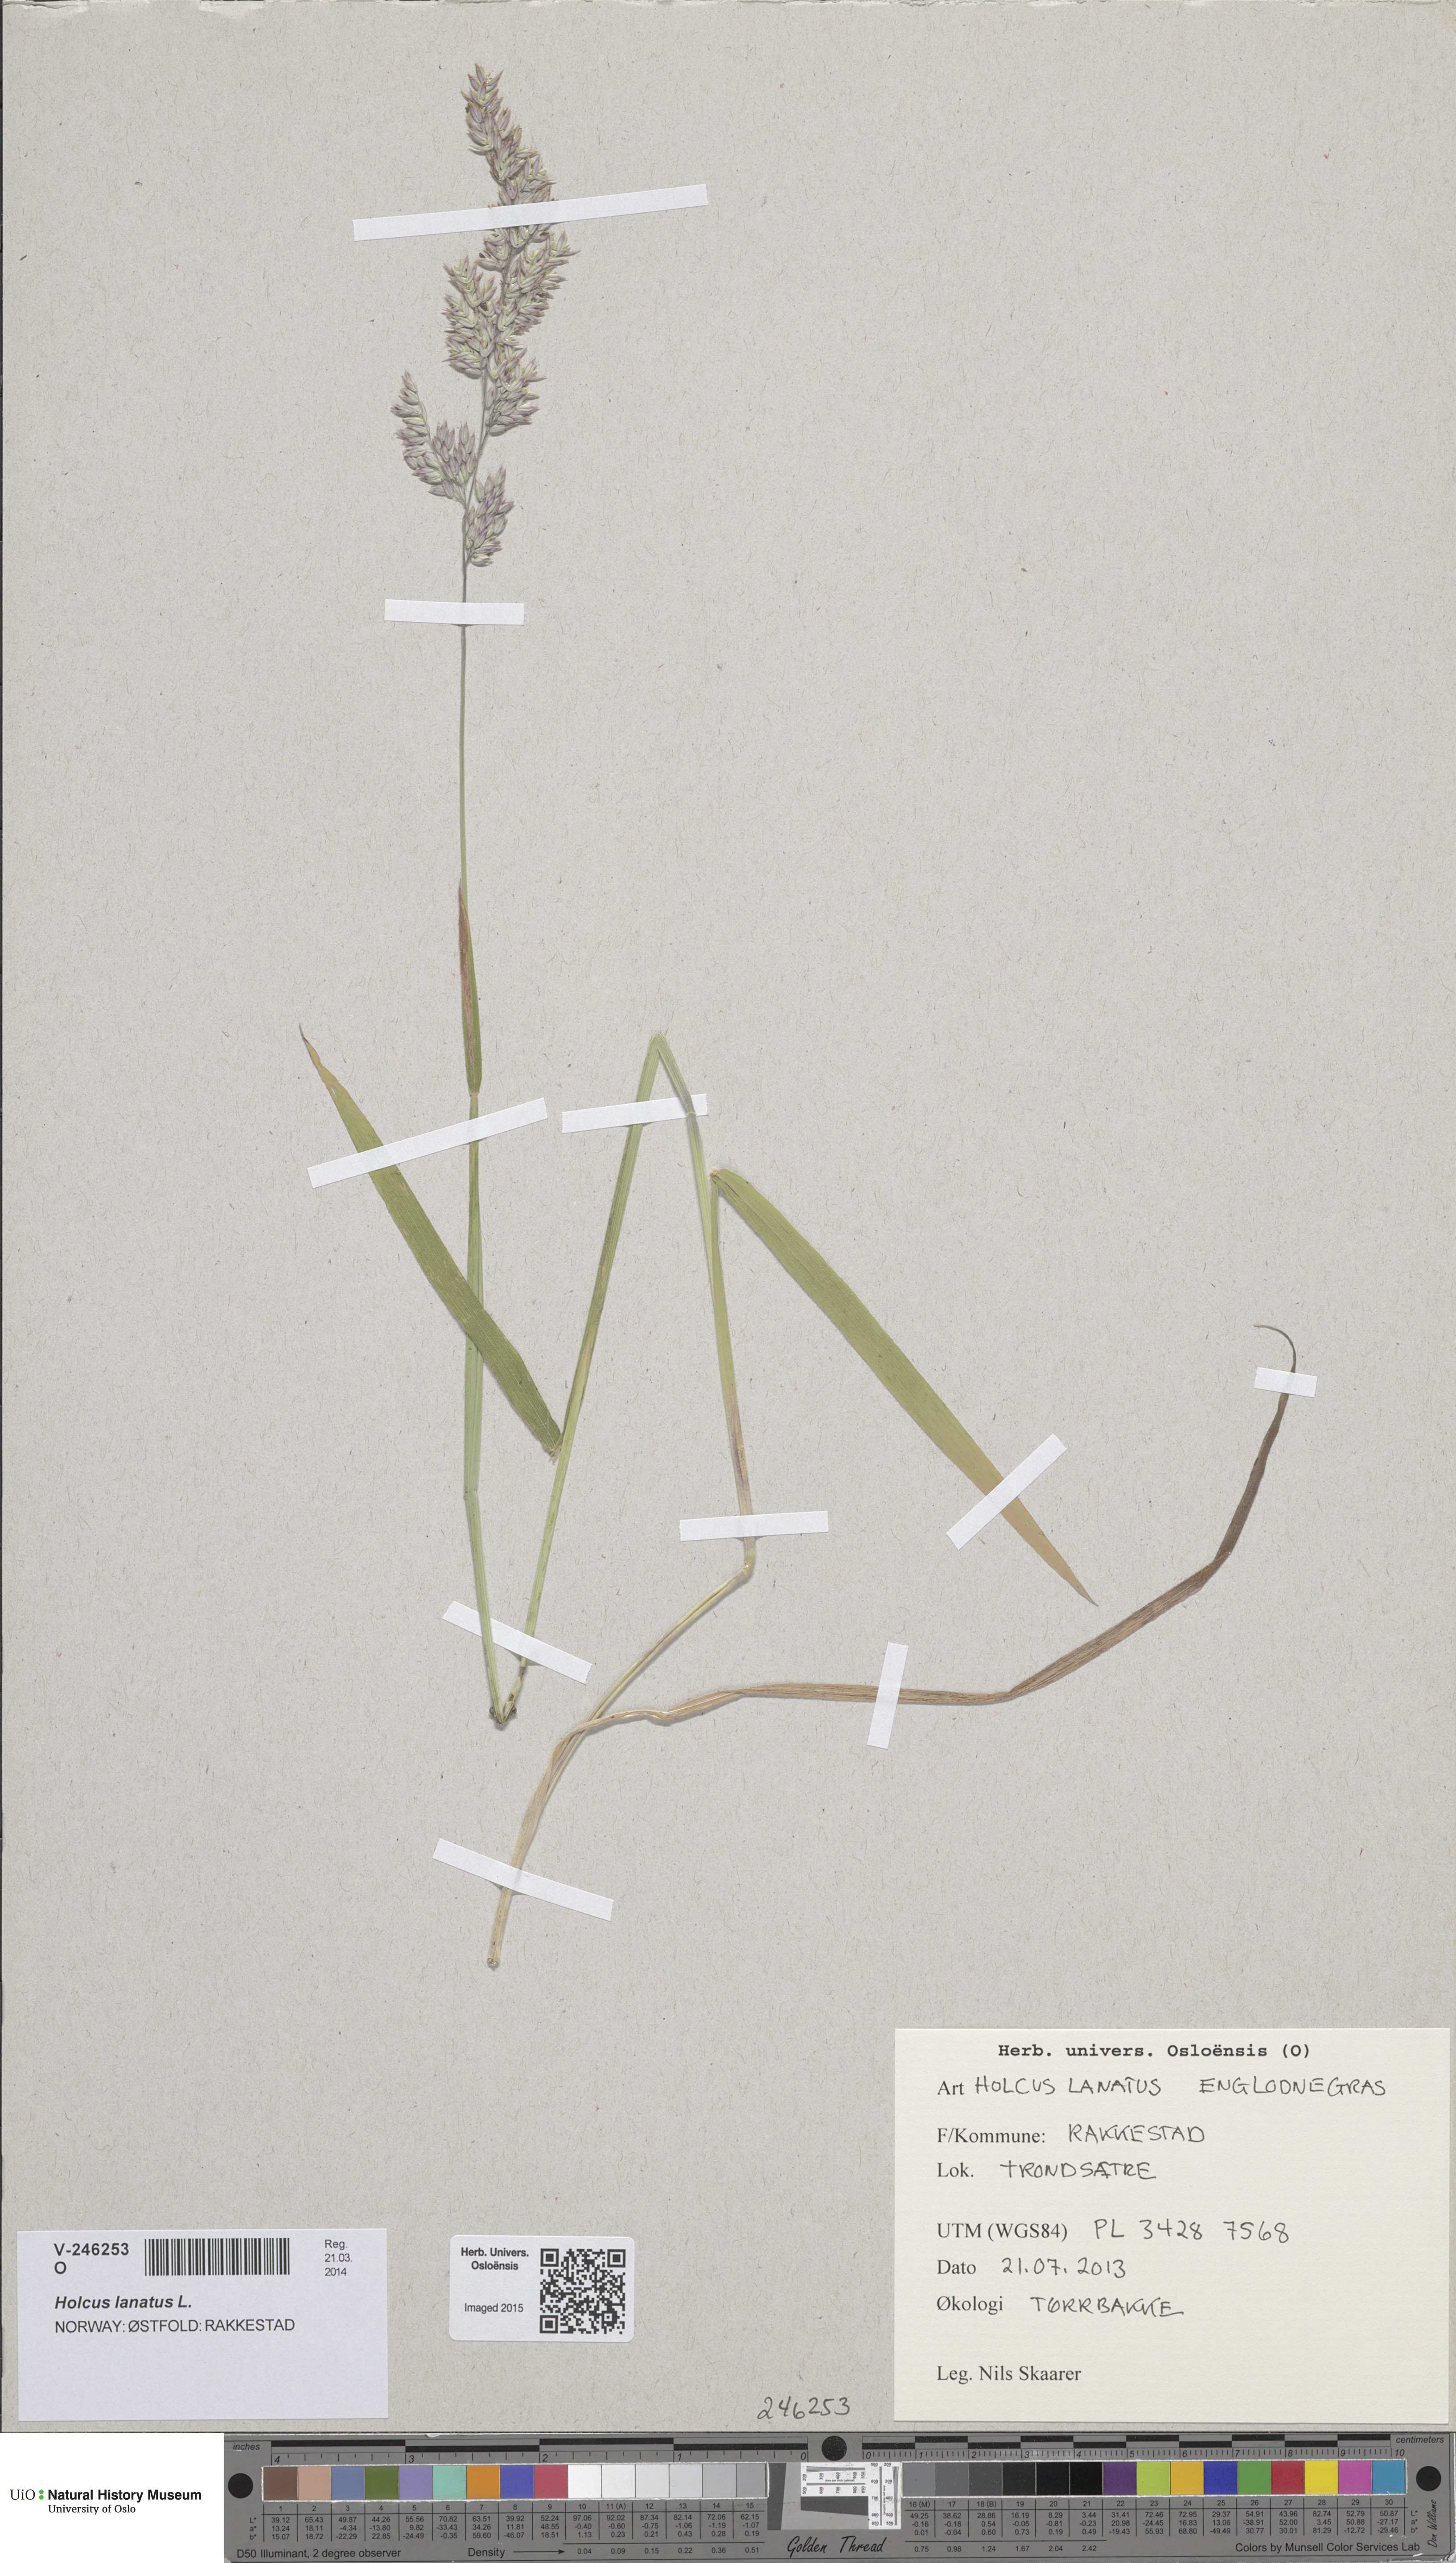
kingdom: Plantae
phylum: Tracheophyta
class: Liliopsida
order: Poales
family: Poaceae
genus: Holcus
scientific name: Holcus lanatus
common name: Yorkshire-fog
